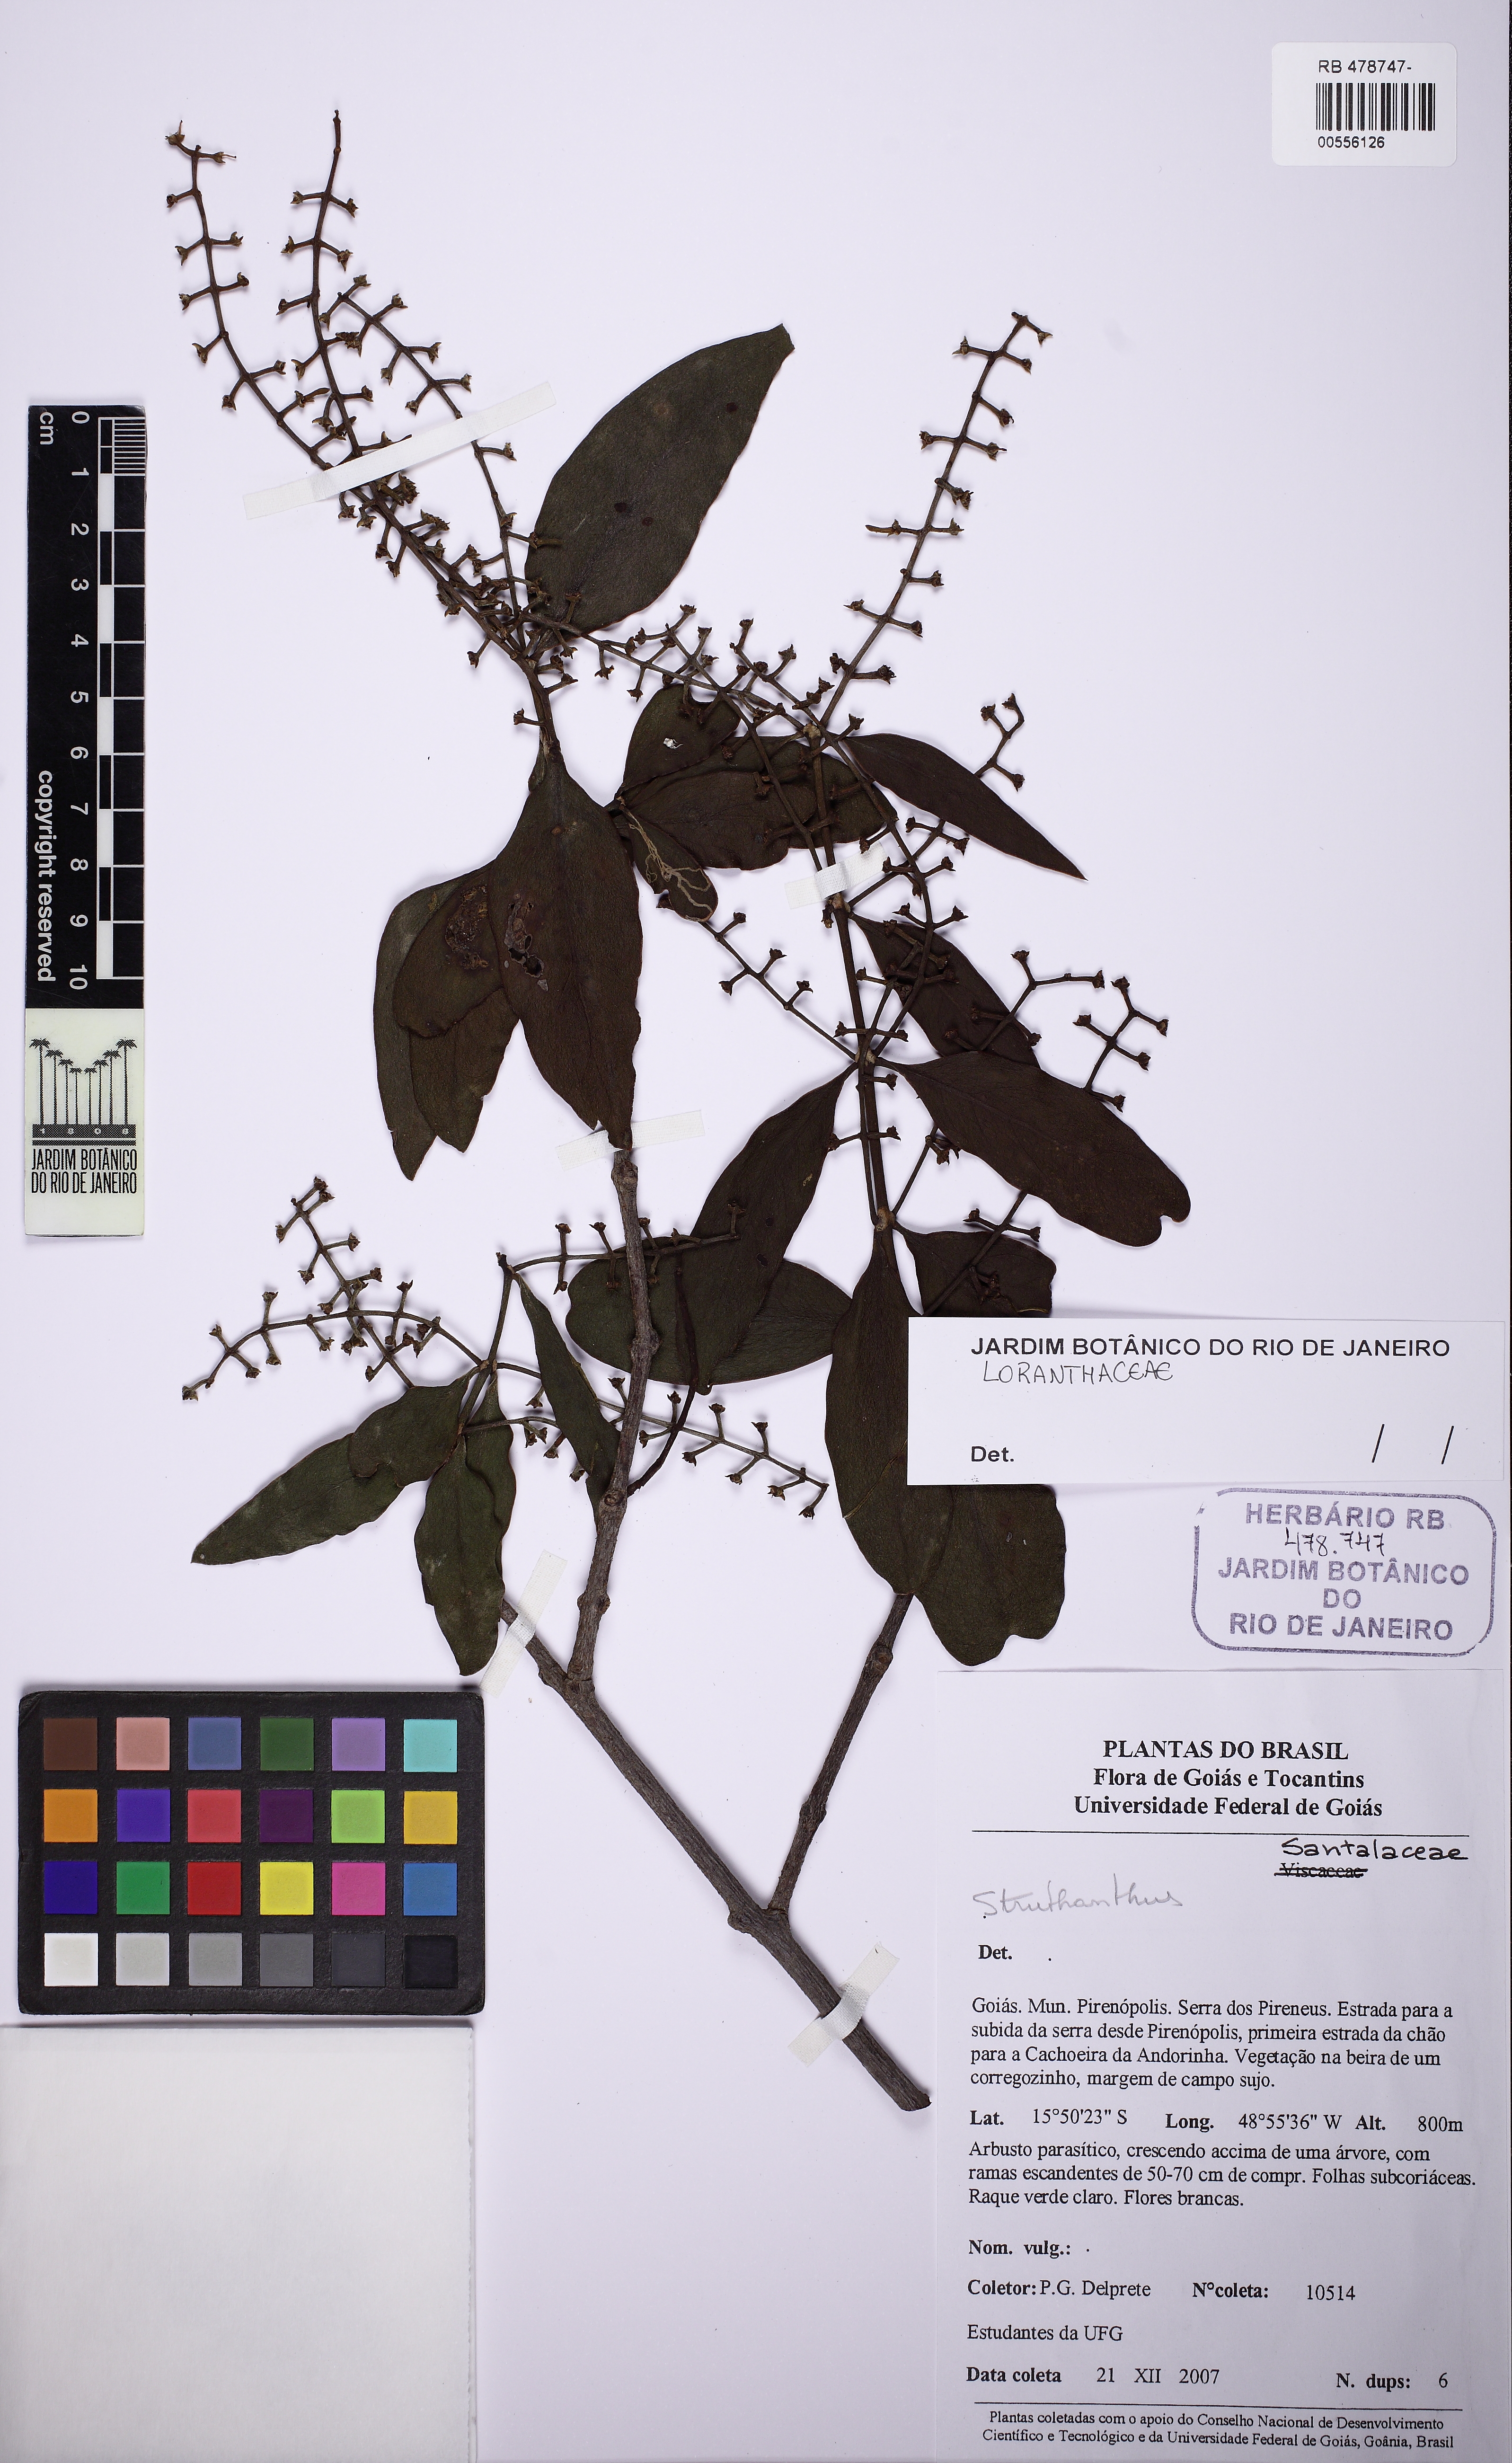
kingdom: Plantae
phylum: Tracheophyta
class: Magnoliopsida
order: Santalales
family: Loranthaceae
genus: Struthanthus
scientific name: Struthanthus
